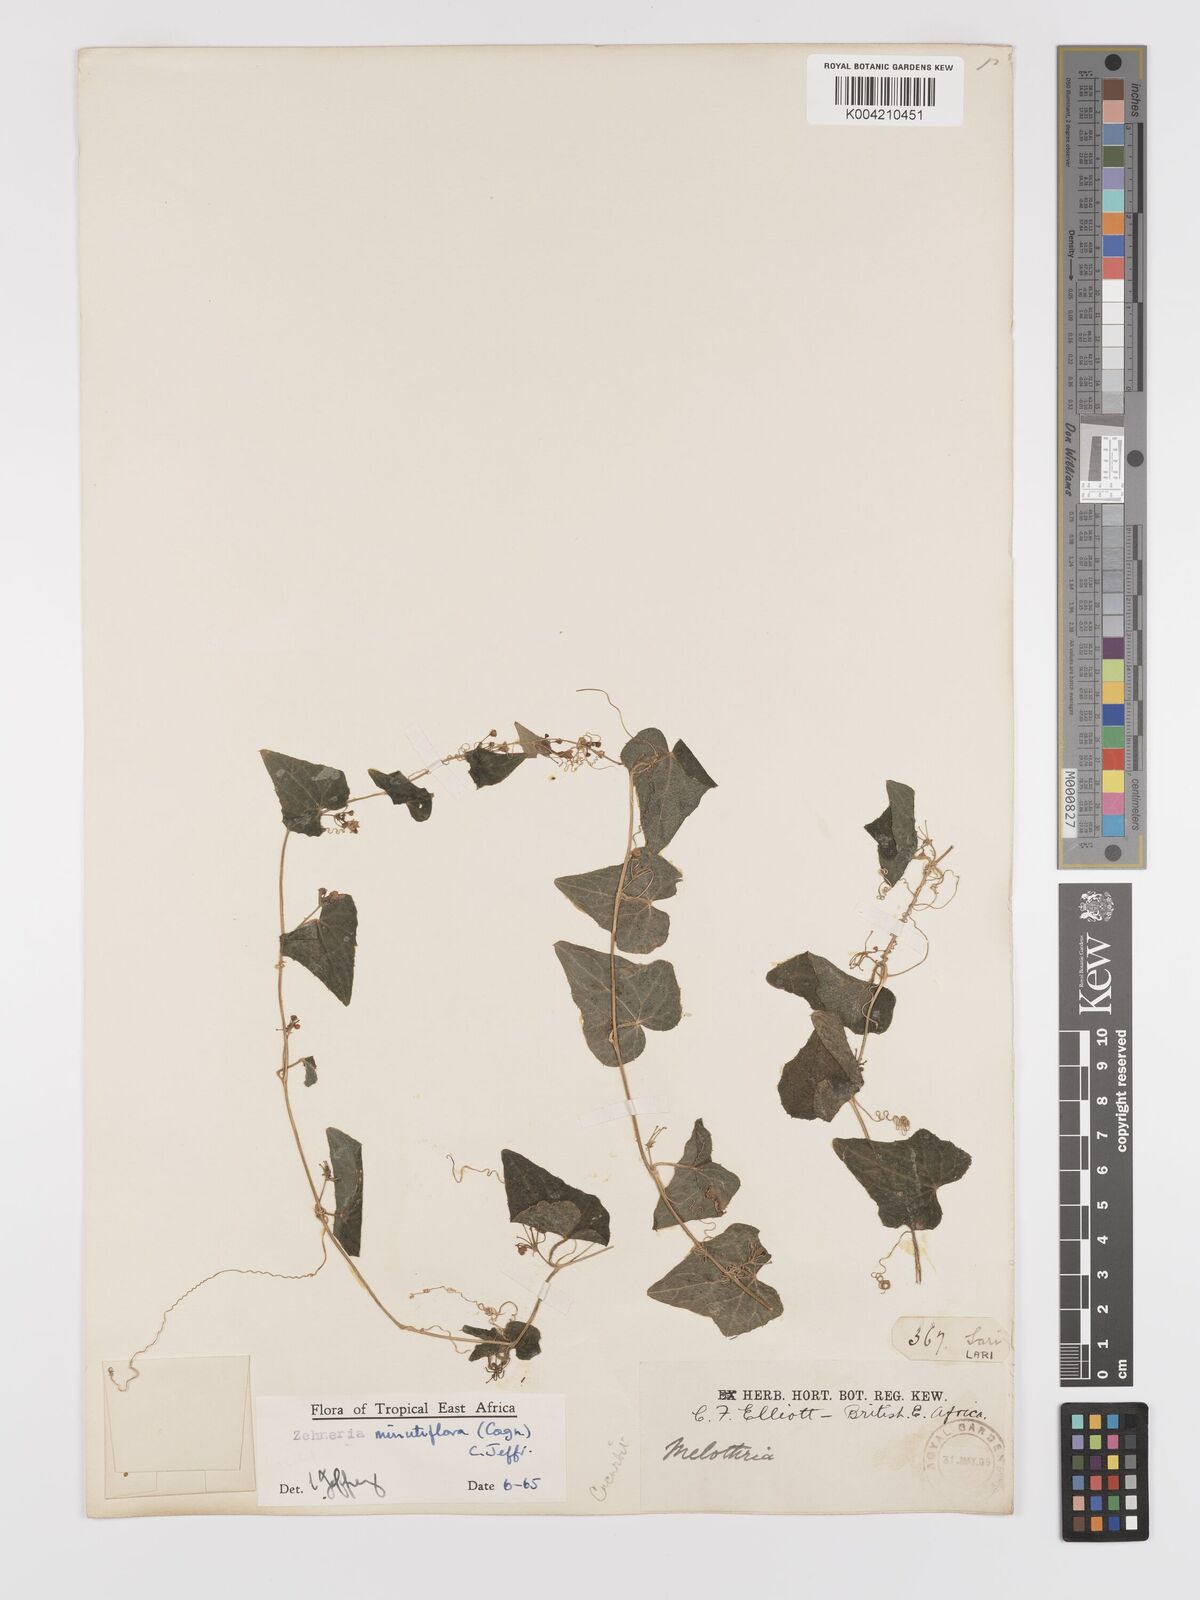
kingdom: Plantae
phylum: Tracheophyta
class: Magnoliopsida
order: Cucurbitales
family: Cucurbitaceae
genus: Zehneria
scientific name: Zehneria minutiflora
